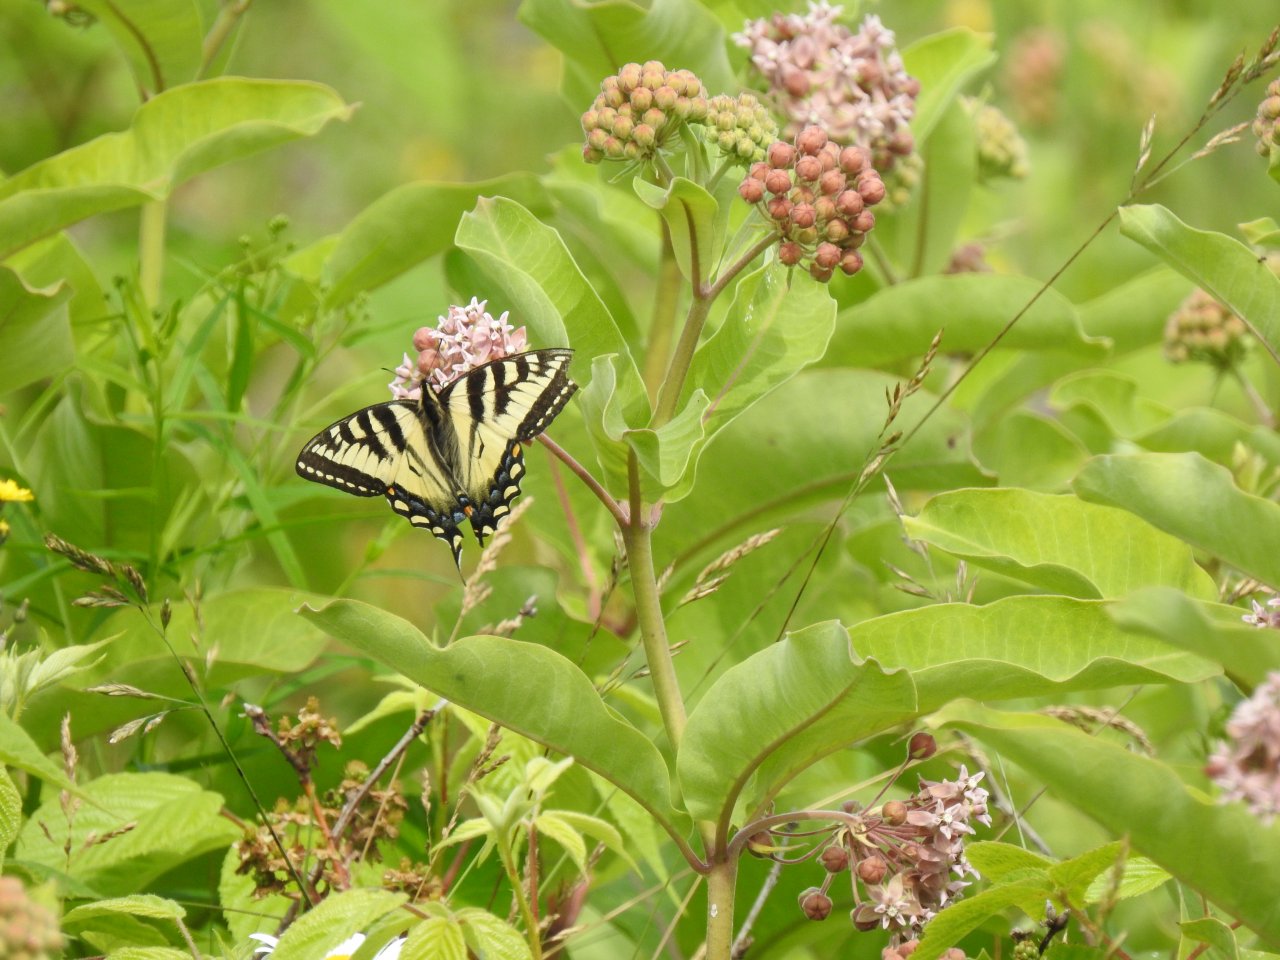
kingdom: Animalia
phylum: Arthropoda
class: Insecta
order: Lepidoptera
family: Papilionidae
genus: Pterourus
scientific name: Pterourus canadensis
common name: Canadian Tiger Swallowtail
